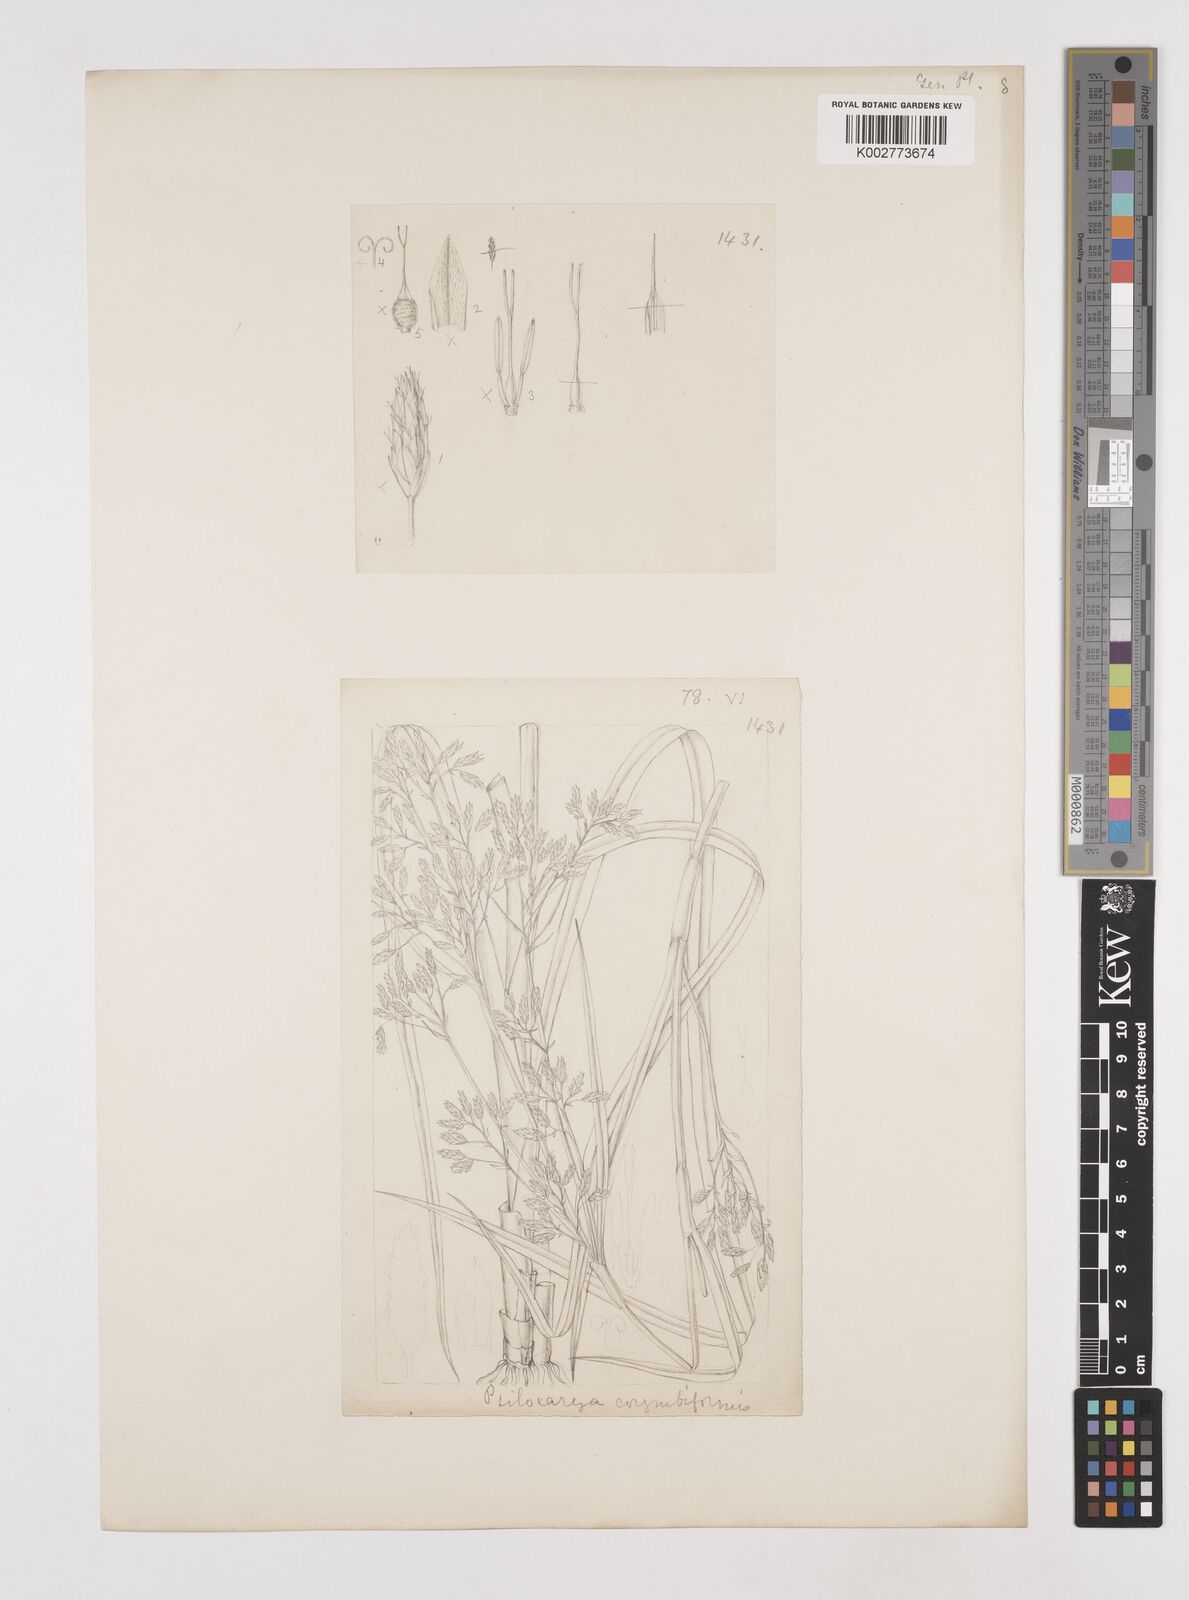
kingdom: Plantae
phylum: Tracheophyta
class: Liliopsida
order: Poales
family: Cyperaceae
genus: Rhynchospora
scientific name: Rhynchospora scirpoides
